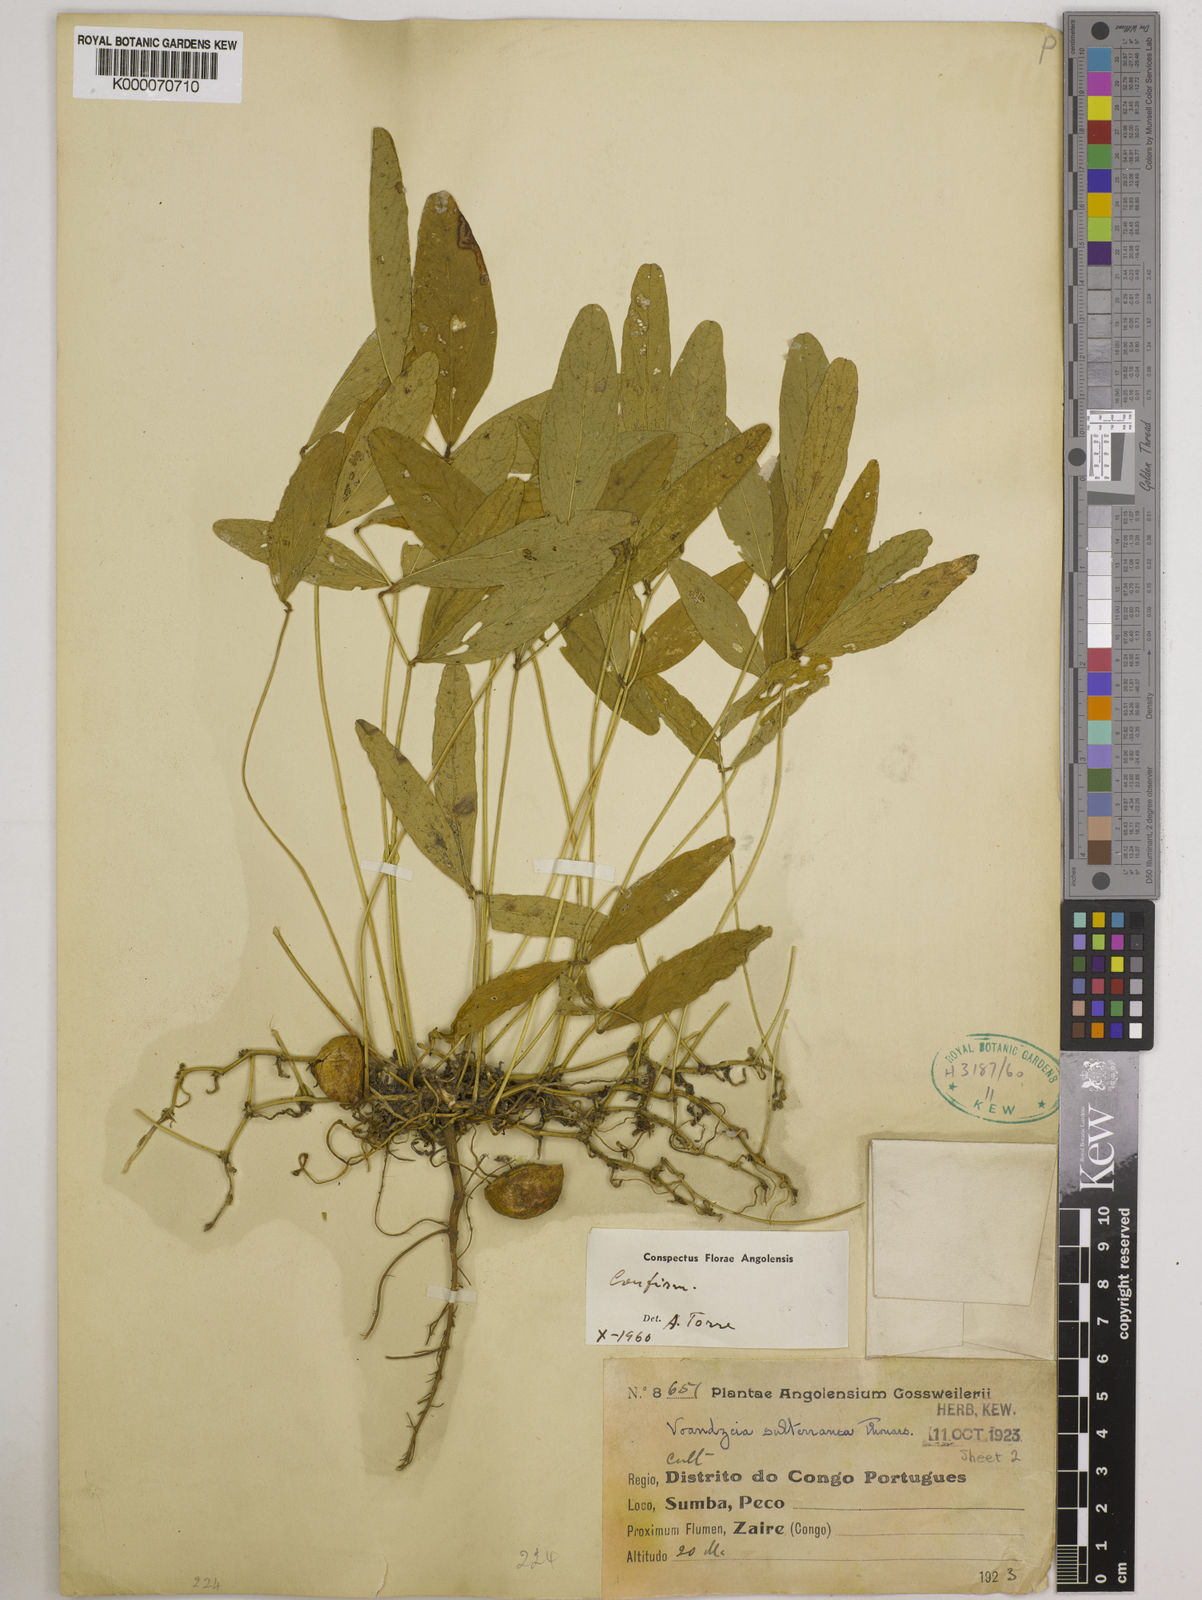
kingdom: Plantae
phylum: Tracheophyta
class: Magnoliopsida
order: Fabales
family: Fabaceae
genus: Vigna
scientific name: Vigna subterranea
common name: Bambara groundnut
